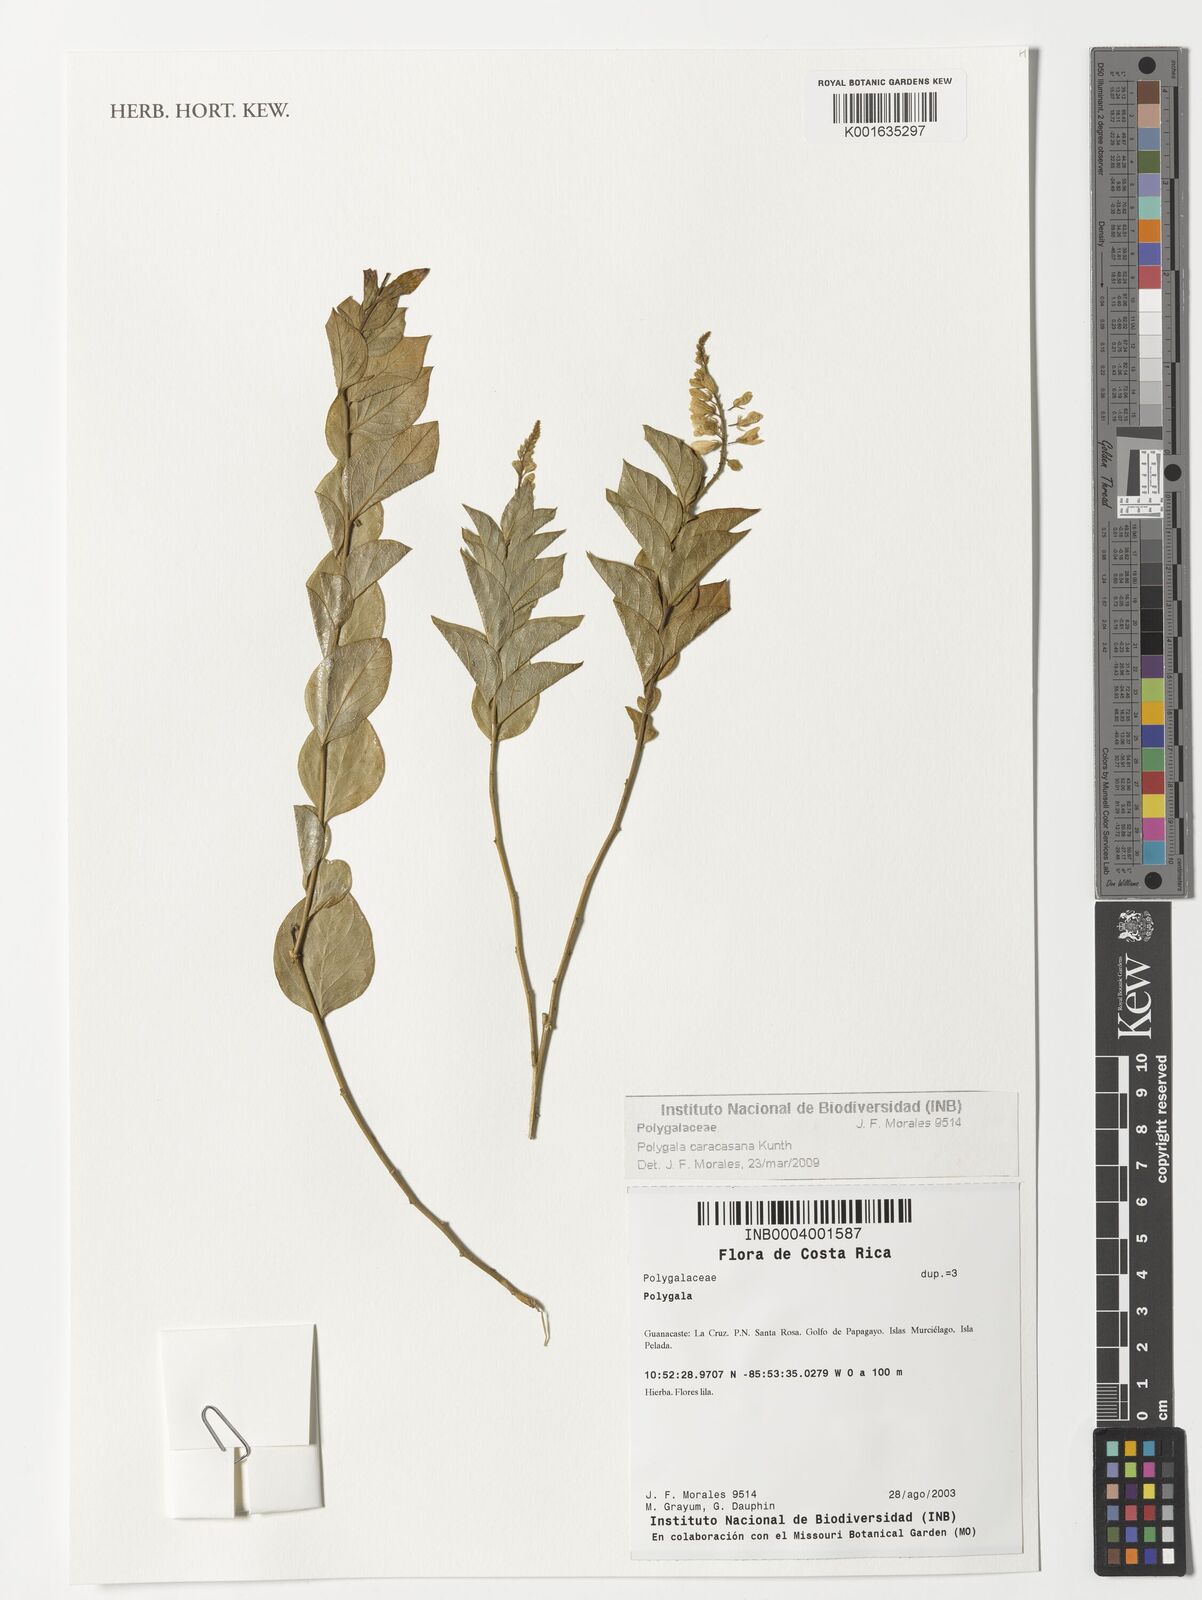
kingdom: Plantae
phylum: Tracheophyta
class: Magnoliopsida
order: Fabales
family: Polygalaceae
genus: Hebecarpa
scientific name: Hebecarpa caracasana
